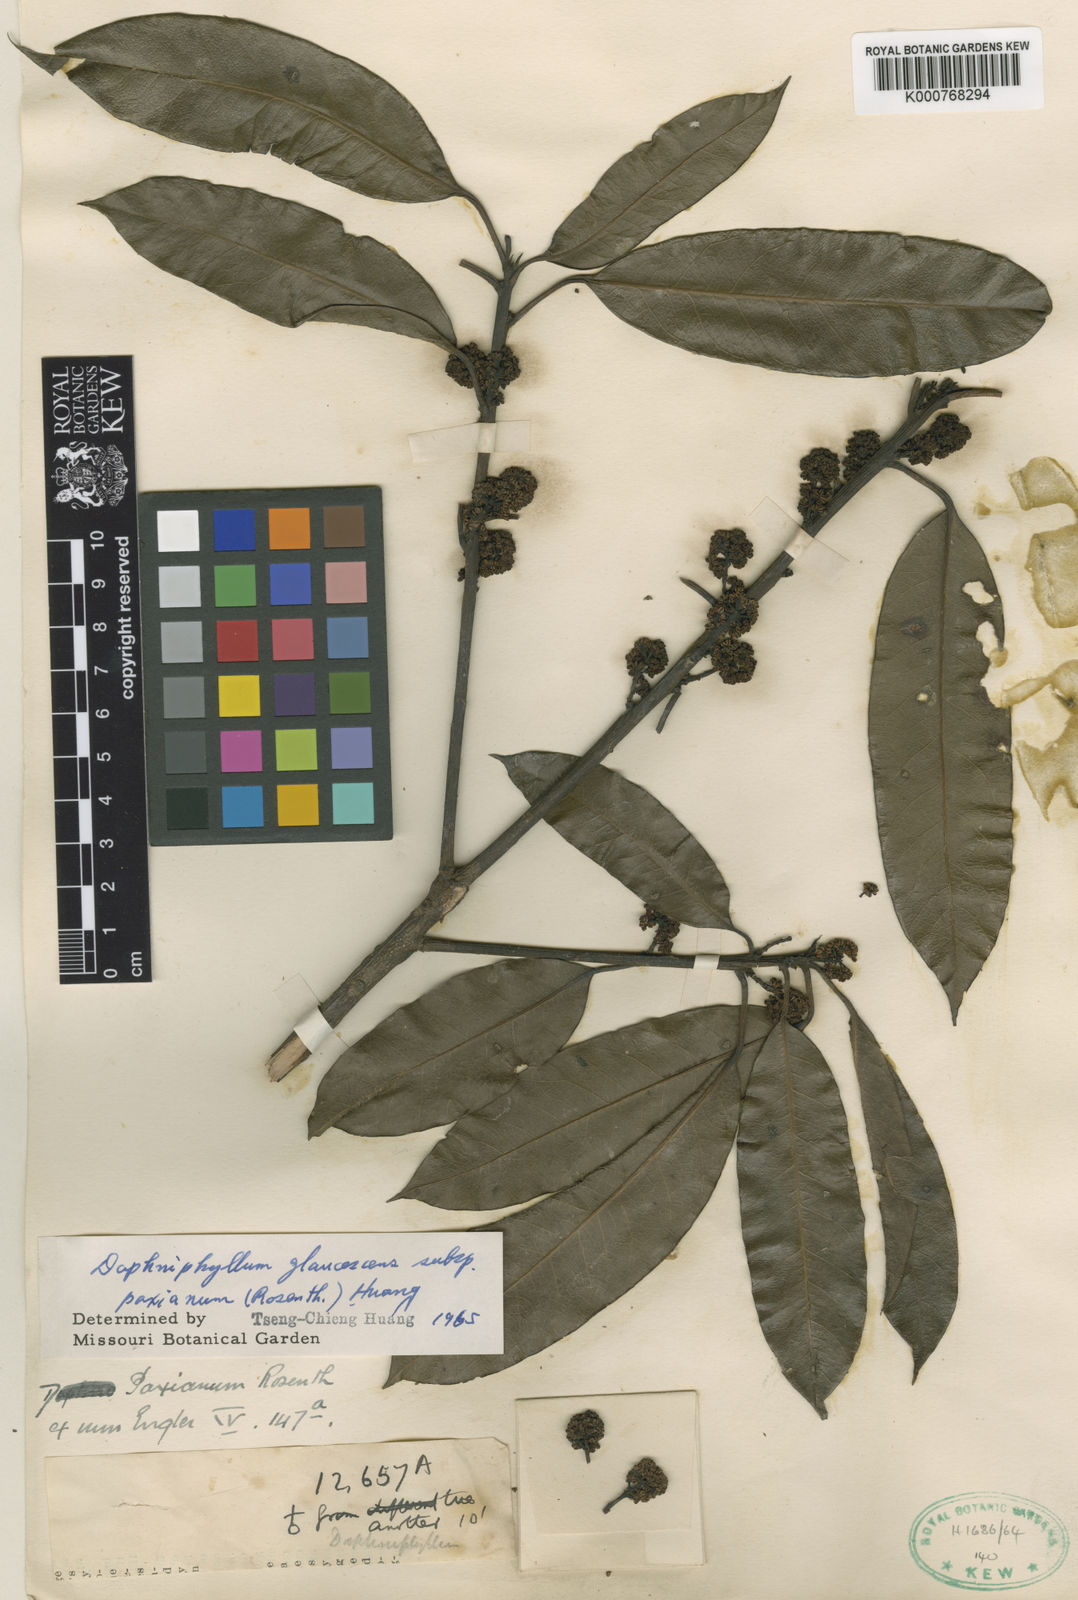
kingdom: Plantae
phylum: Tracheophyta
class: Magnoliopsida
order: Saxifragales
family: Daphniphyllaceae
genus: Daphniphyllum
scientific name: Daphniphyllum paxianum
